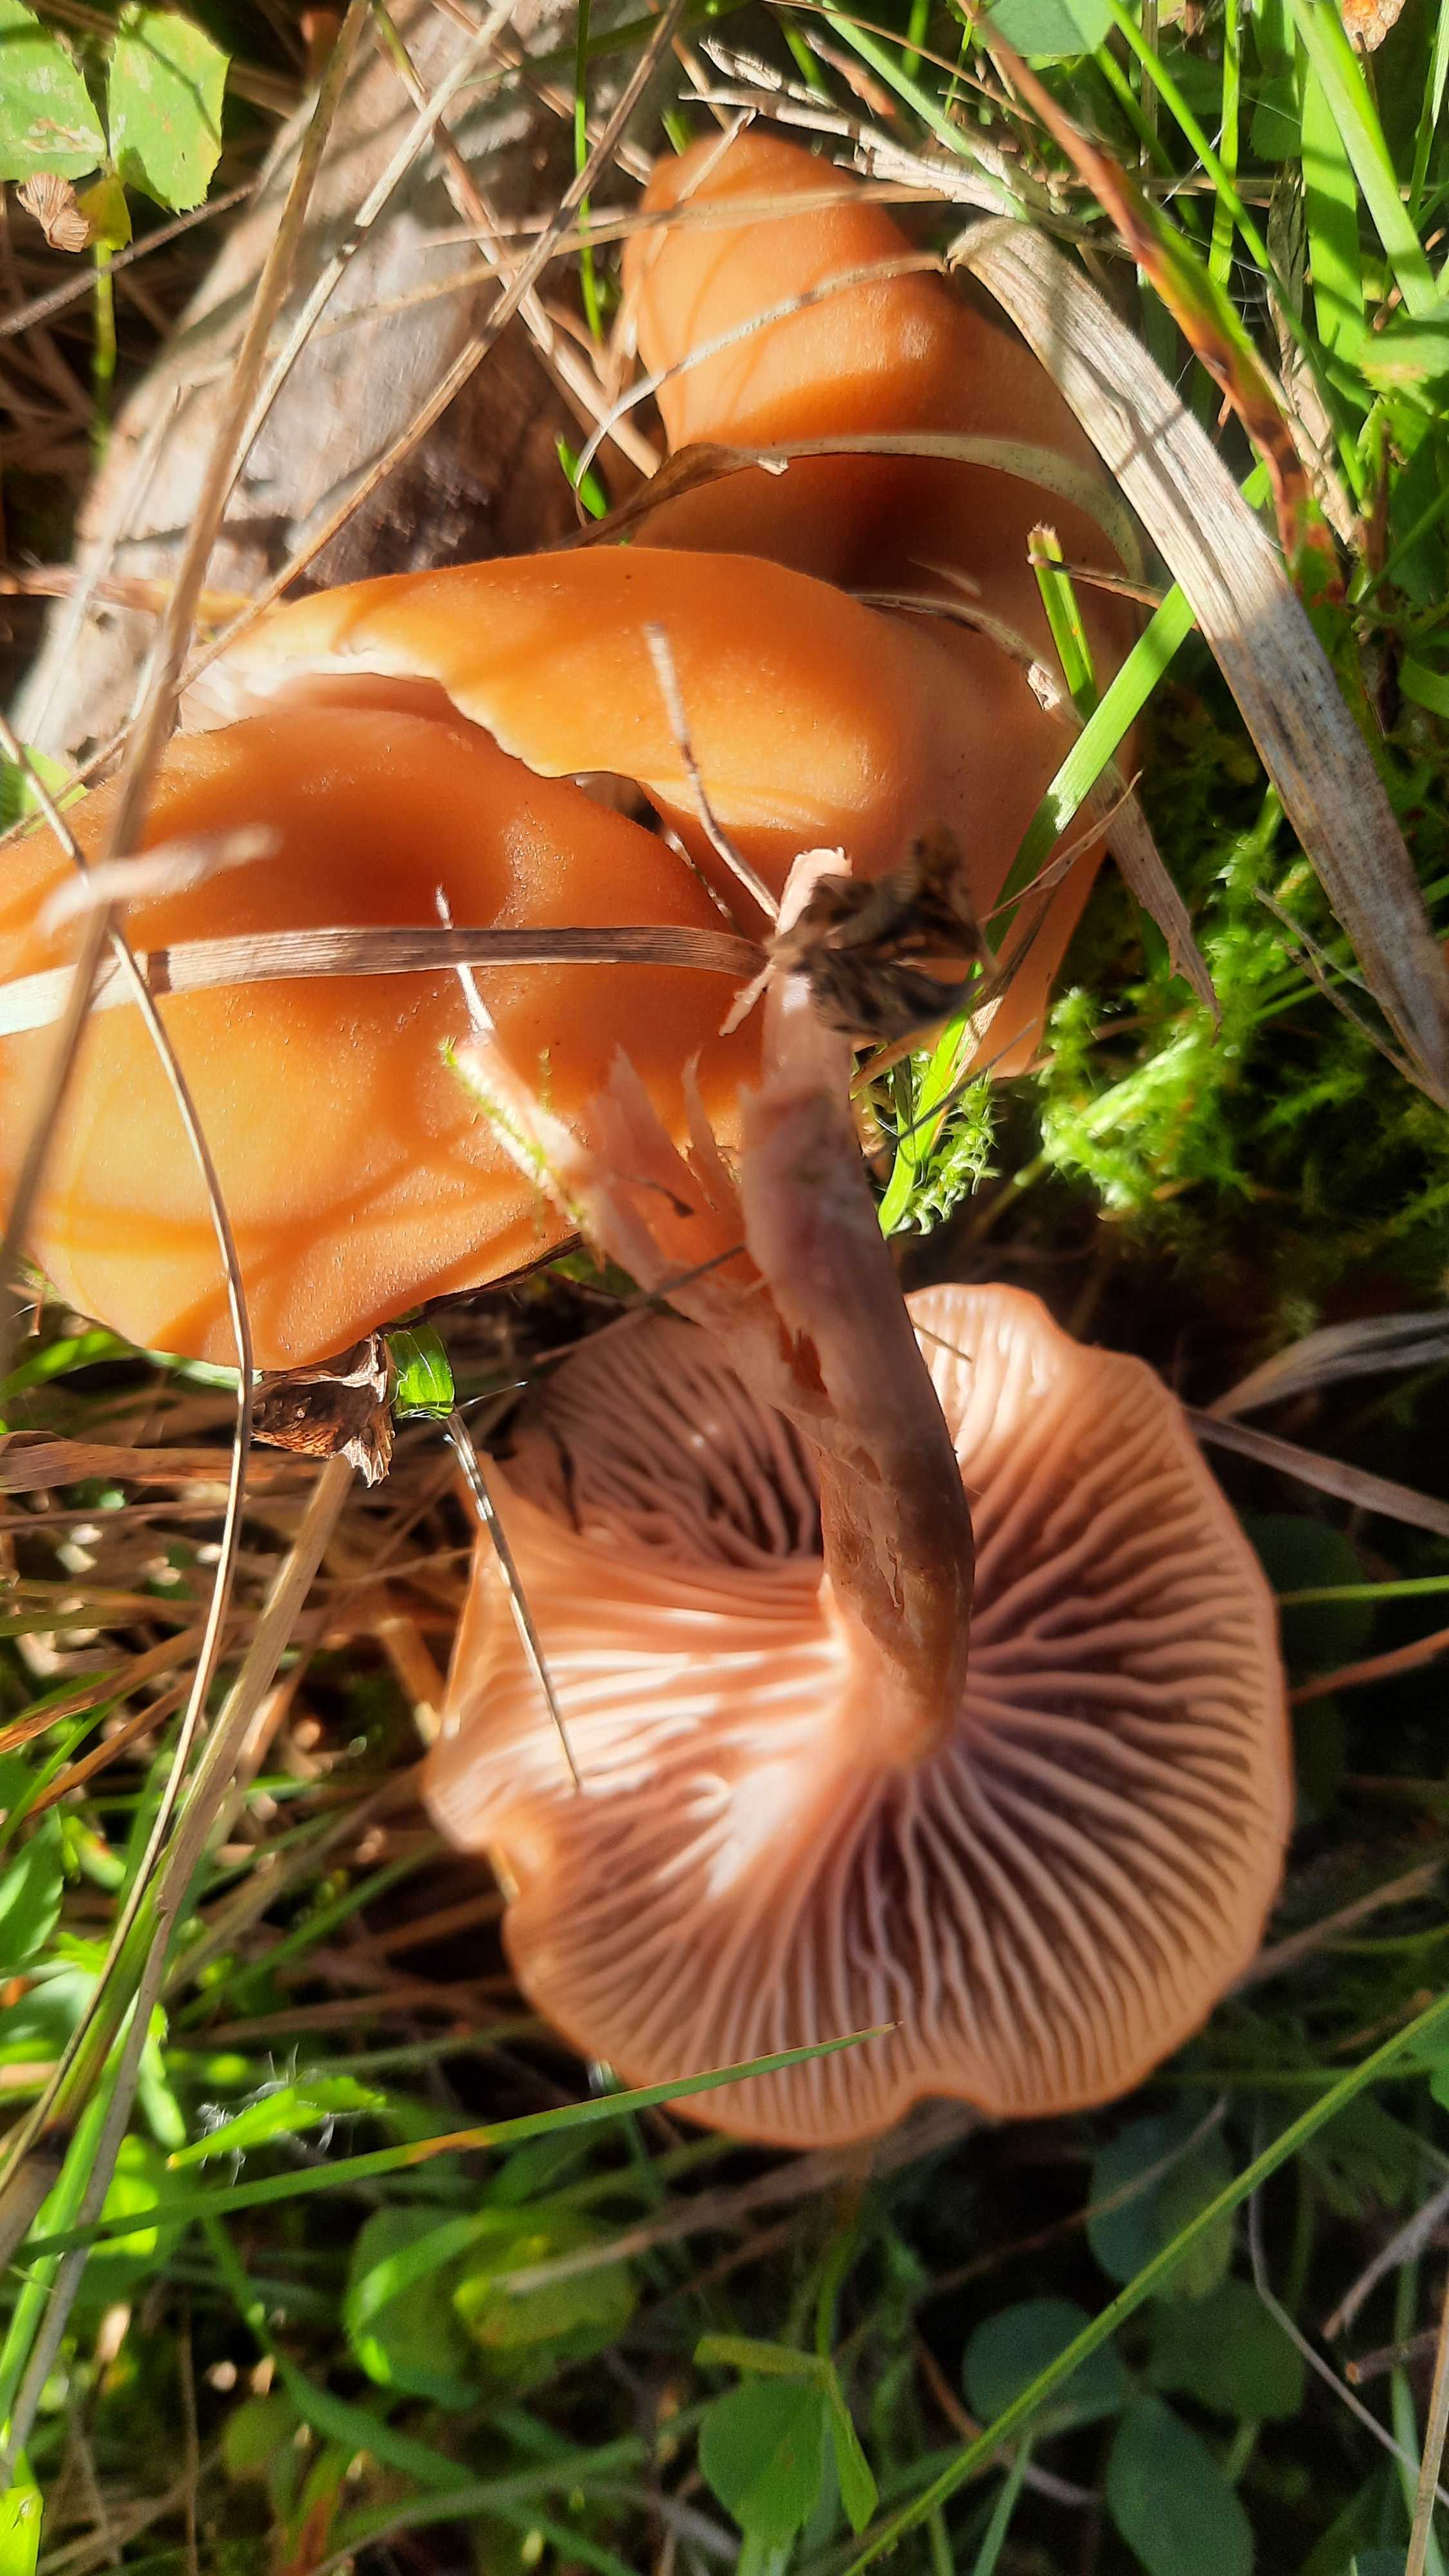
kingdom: Fungi
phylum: Basidiomycota
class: Agaricomycetes
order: Agaricales
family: Hydnangiaceae
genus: Laccaria
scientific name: Laccaria laccata
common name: rød ametysthat
